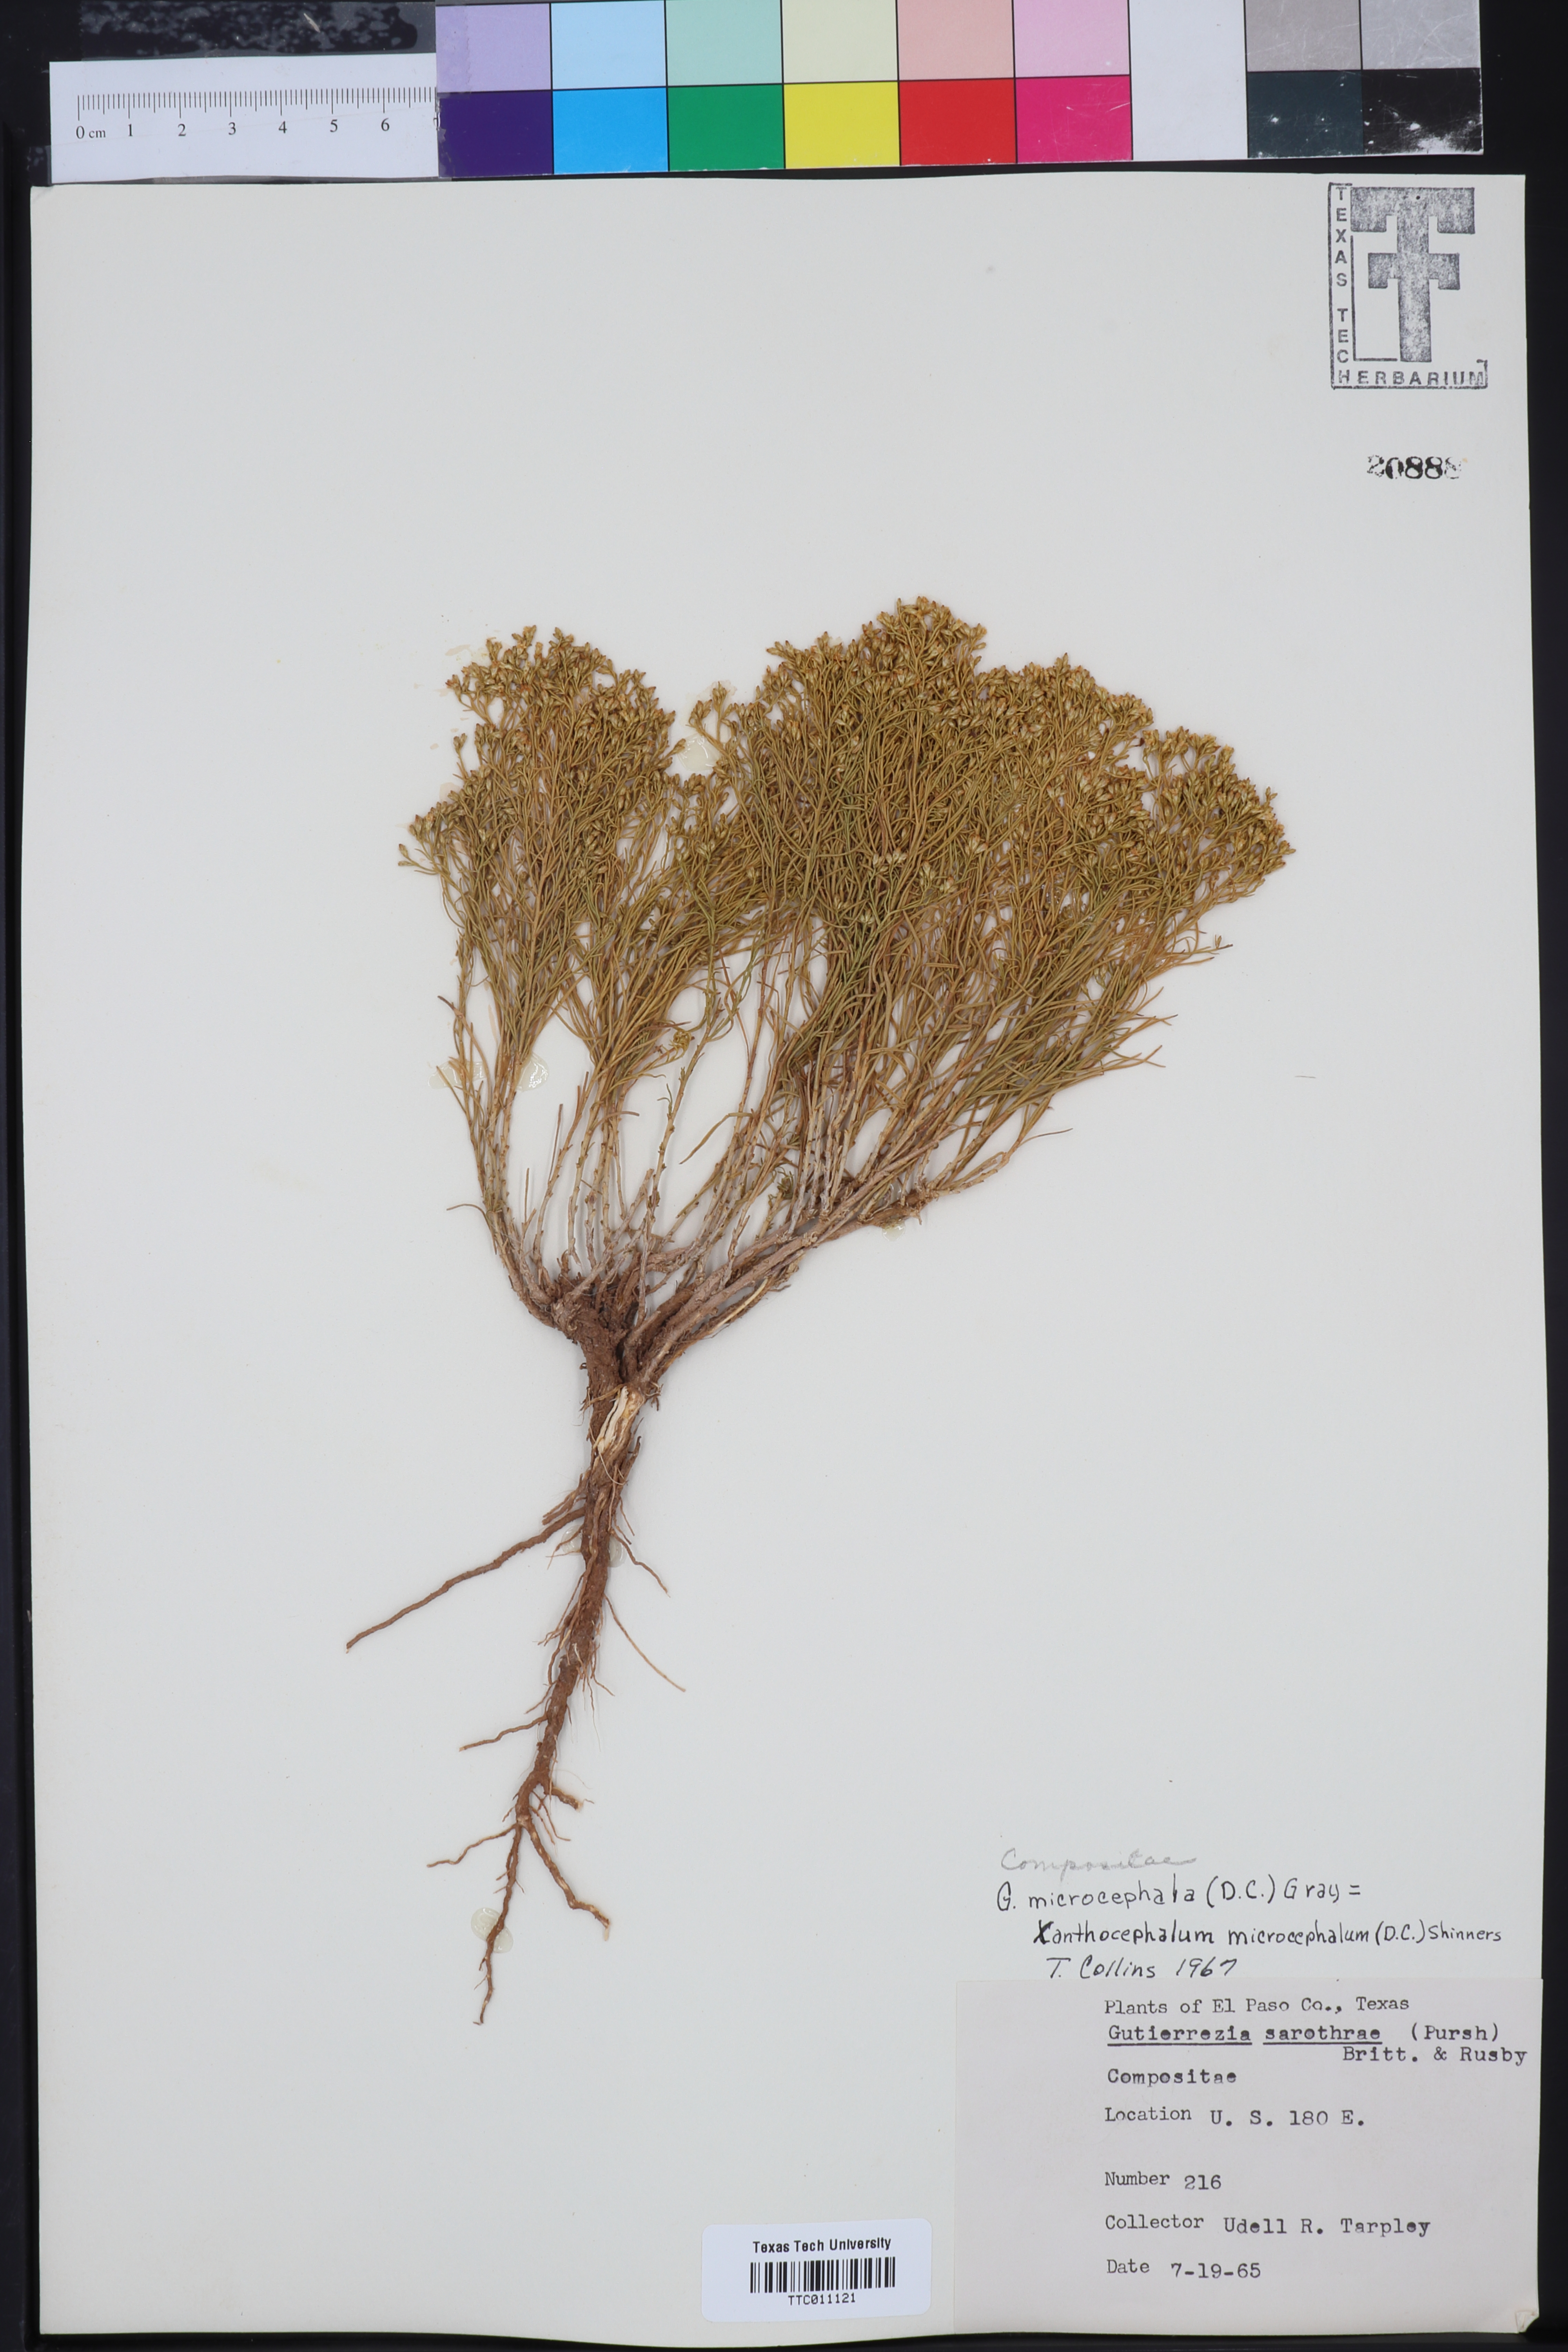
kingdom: Plantae
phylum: Tracheophyta
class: Magnoliopsida
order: Asterales
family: Asteraceae
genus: Gutierrezia
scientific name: Gutierrezia microcephala
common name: Thread snakeweed
